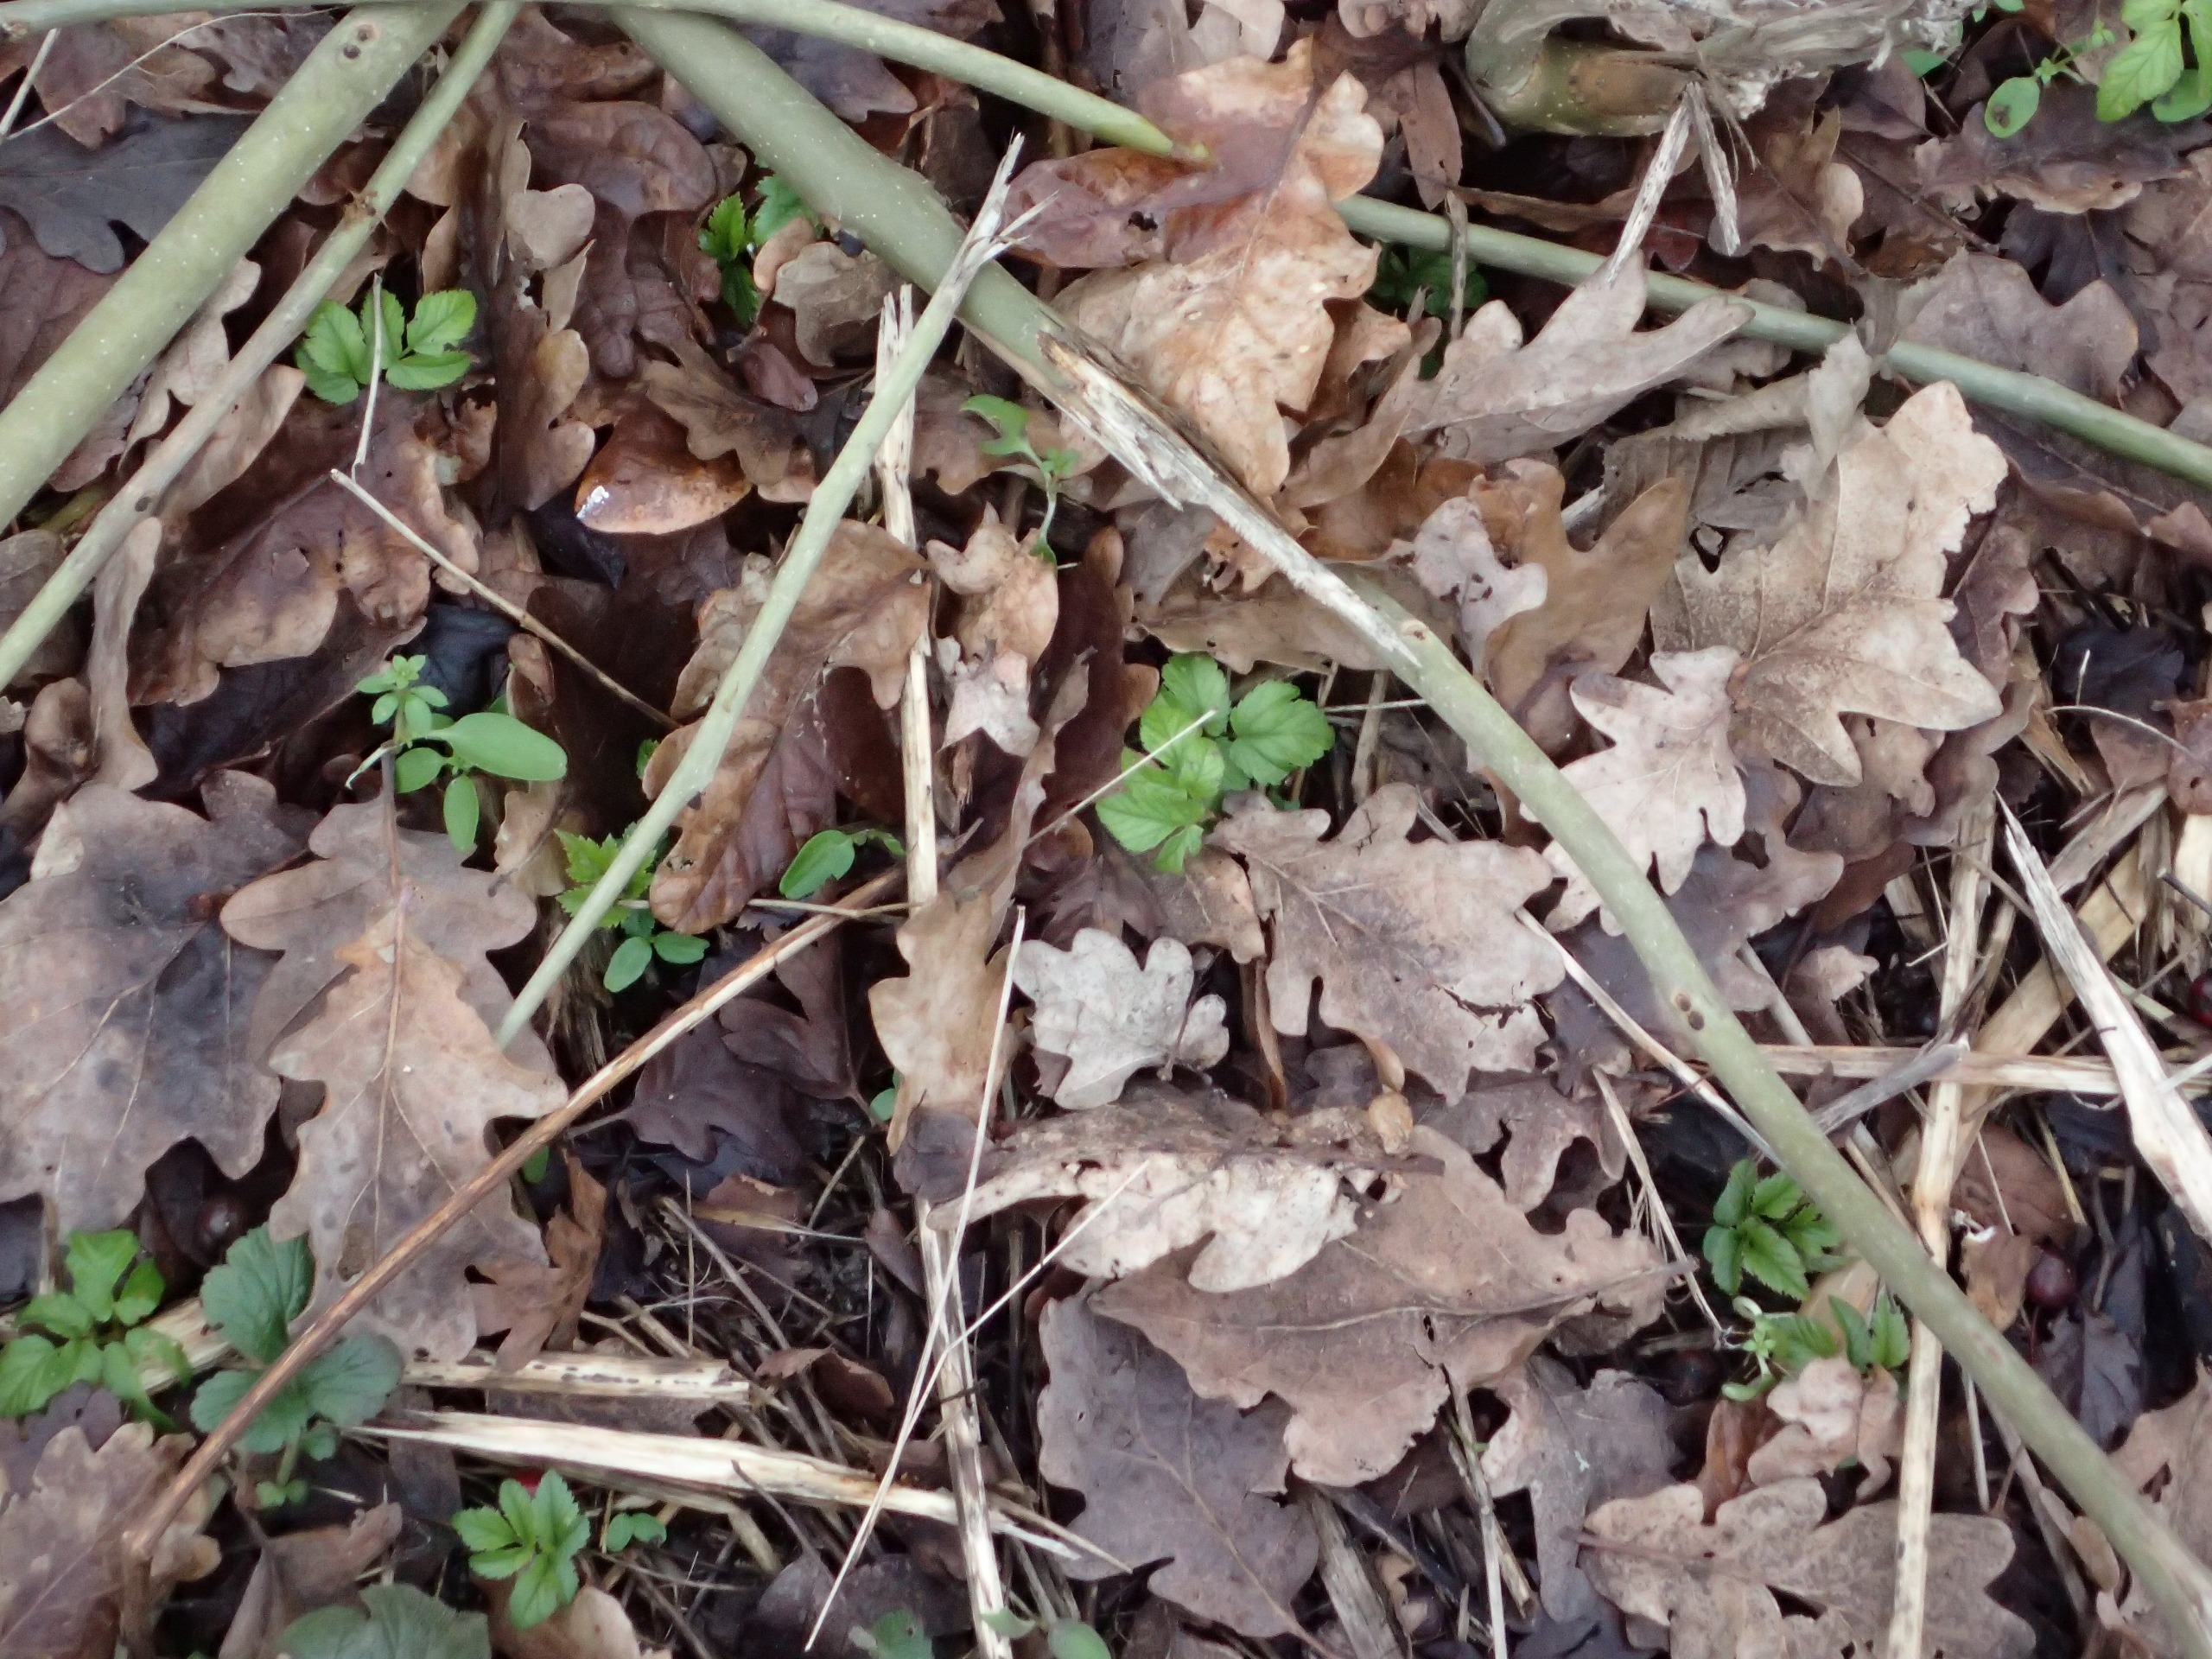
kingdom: Plantae
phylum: Tracheophyta
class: Magnoliopsida
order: Apiales
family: Apiaceae
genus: Aegopodium
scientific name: Aegopodium podagraria
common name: Skvalderkål
